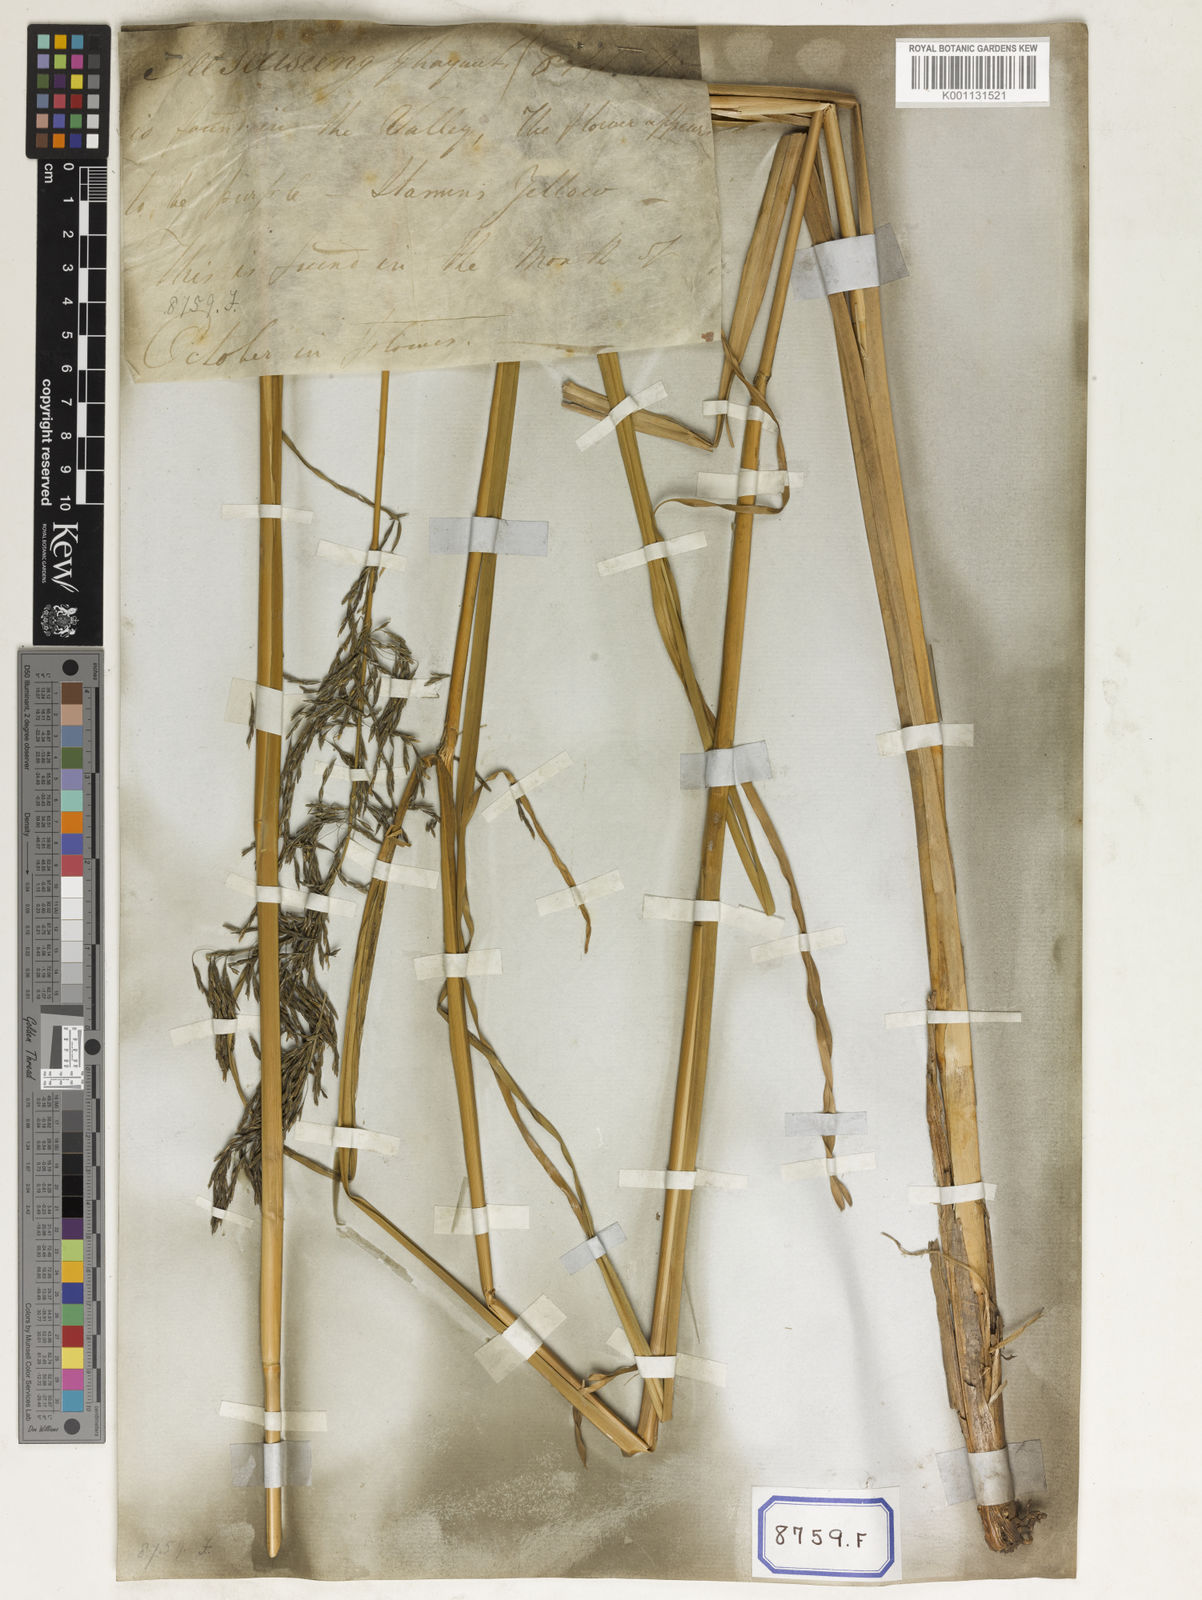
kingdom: Plantae
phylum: Tracheophyta
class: Liliopsida
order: Poales
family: Poaceae
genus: Chrysopogon
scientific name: Chrysopogon zizanioides
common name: False beardgrass
